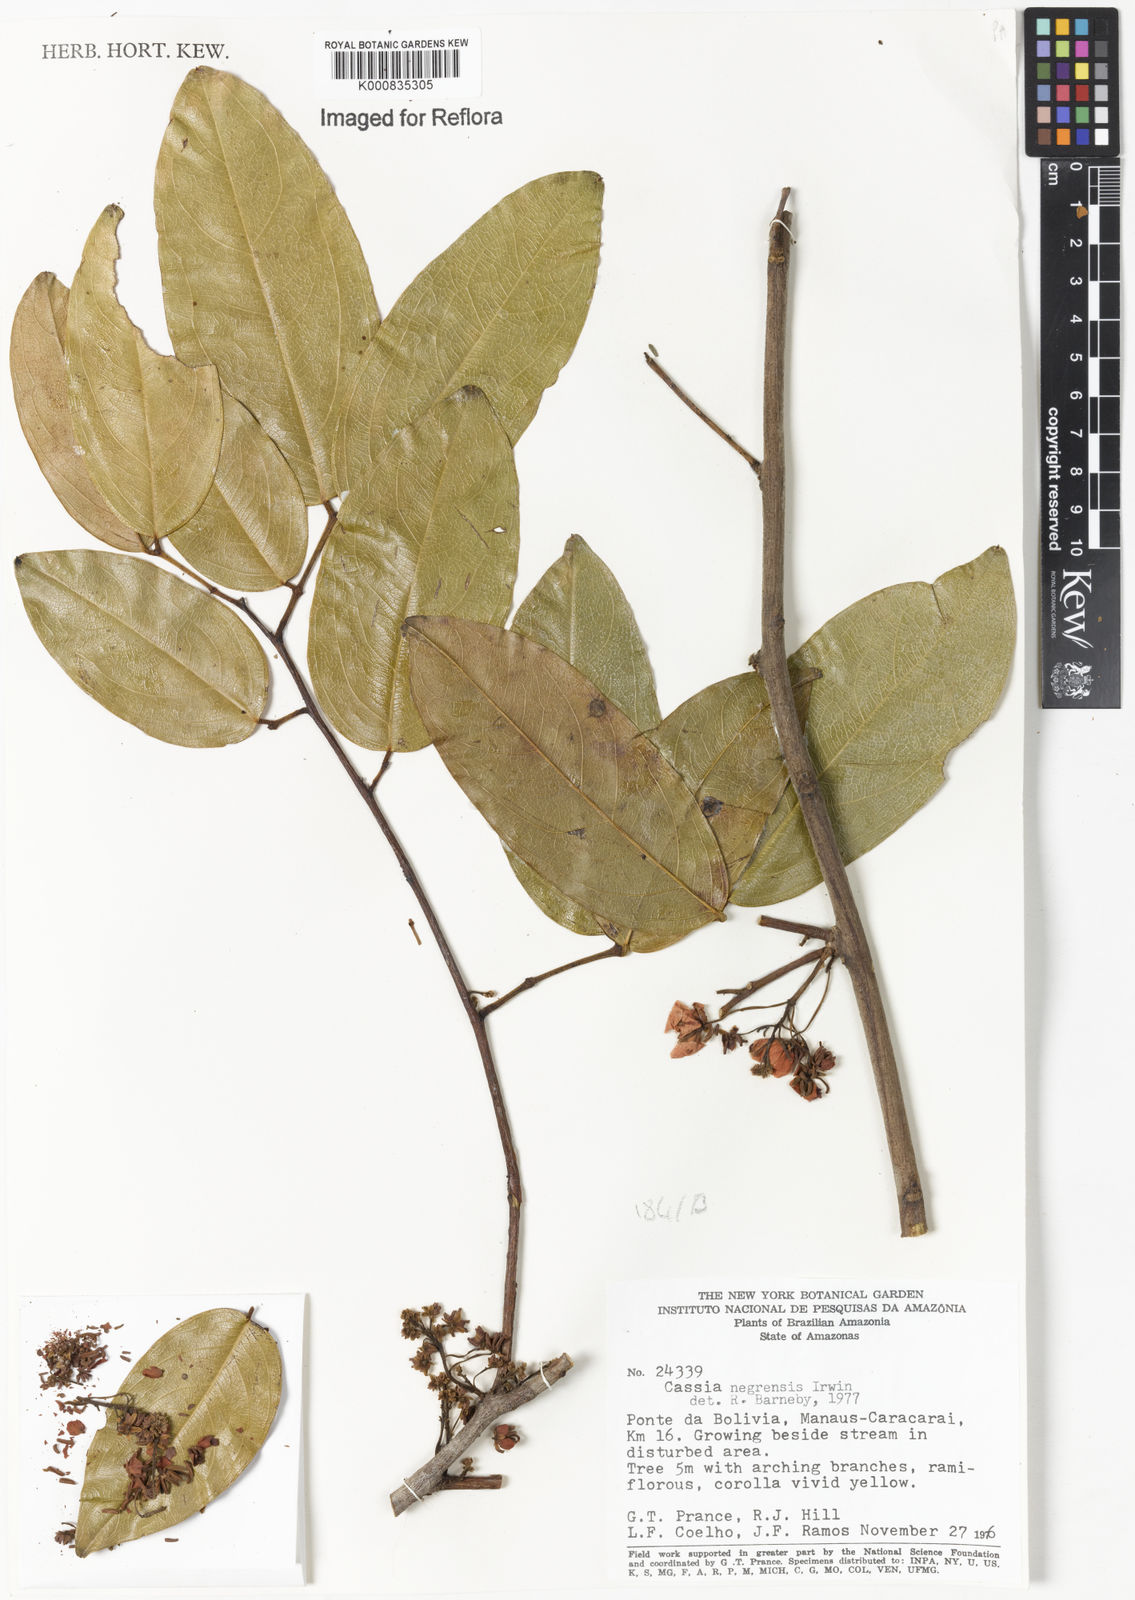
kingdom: Plantae
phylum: Tracheophyta
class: Magnoliopsida
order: Fabales
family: Fabaceae
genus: Chamaecrista
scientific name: Chamaecrista negrensis
